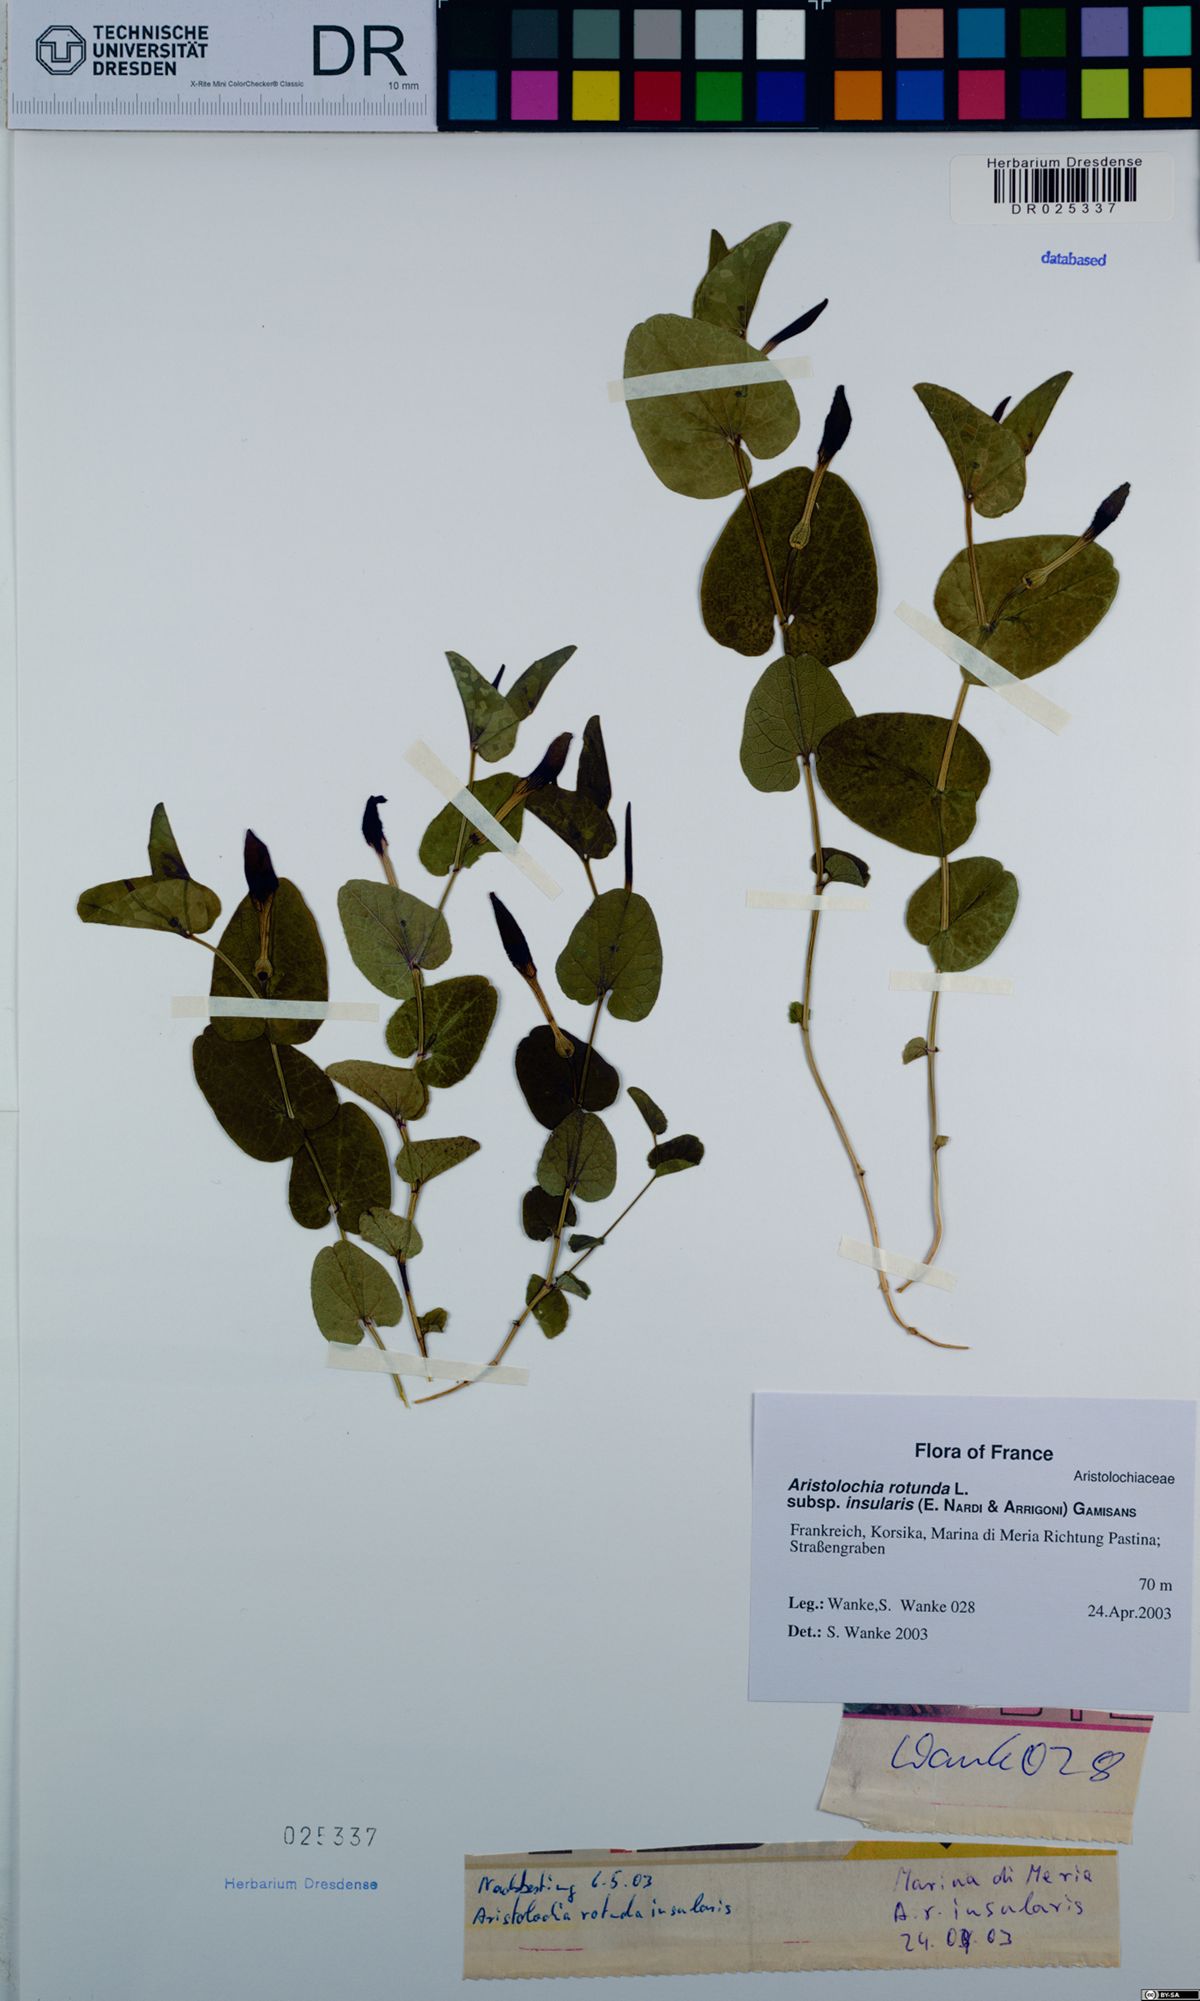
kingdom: Plantae
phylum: Tracheophyta
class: Magnoliopsida
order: Piperales
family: Aristolochiaceae
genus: Aristolochia
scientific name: Aristolochia rotunda
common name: Smearwort
